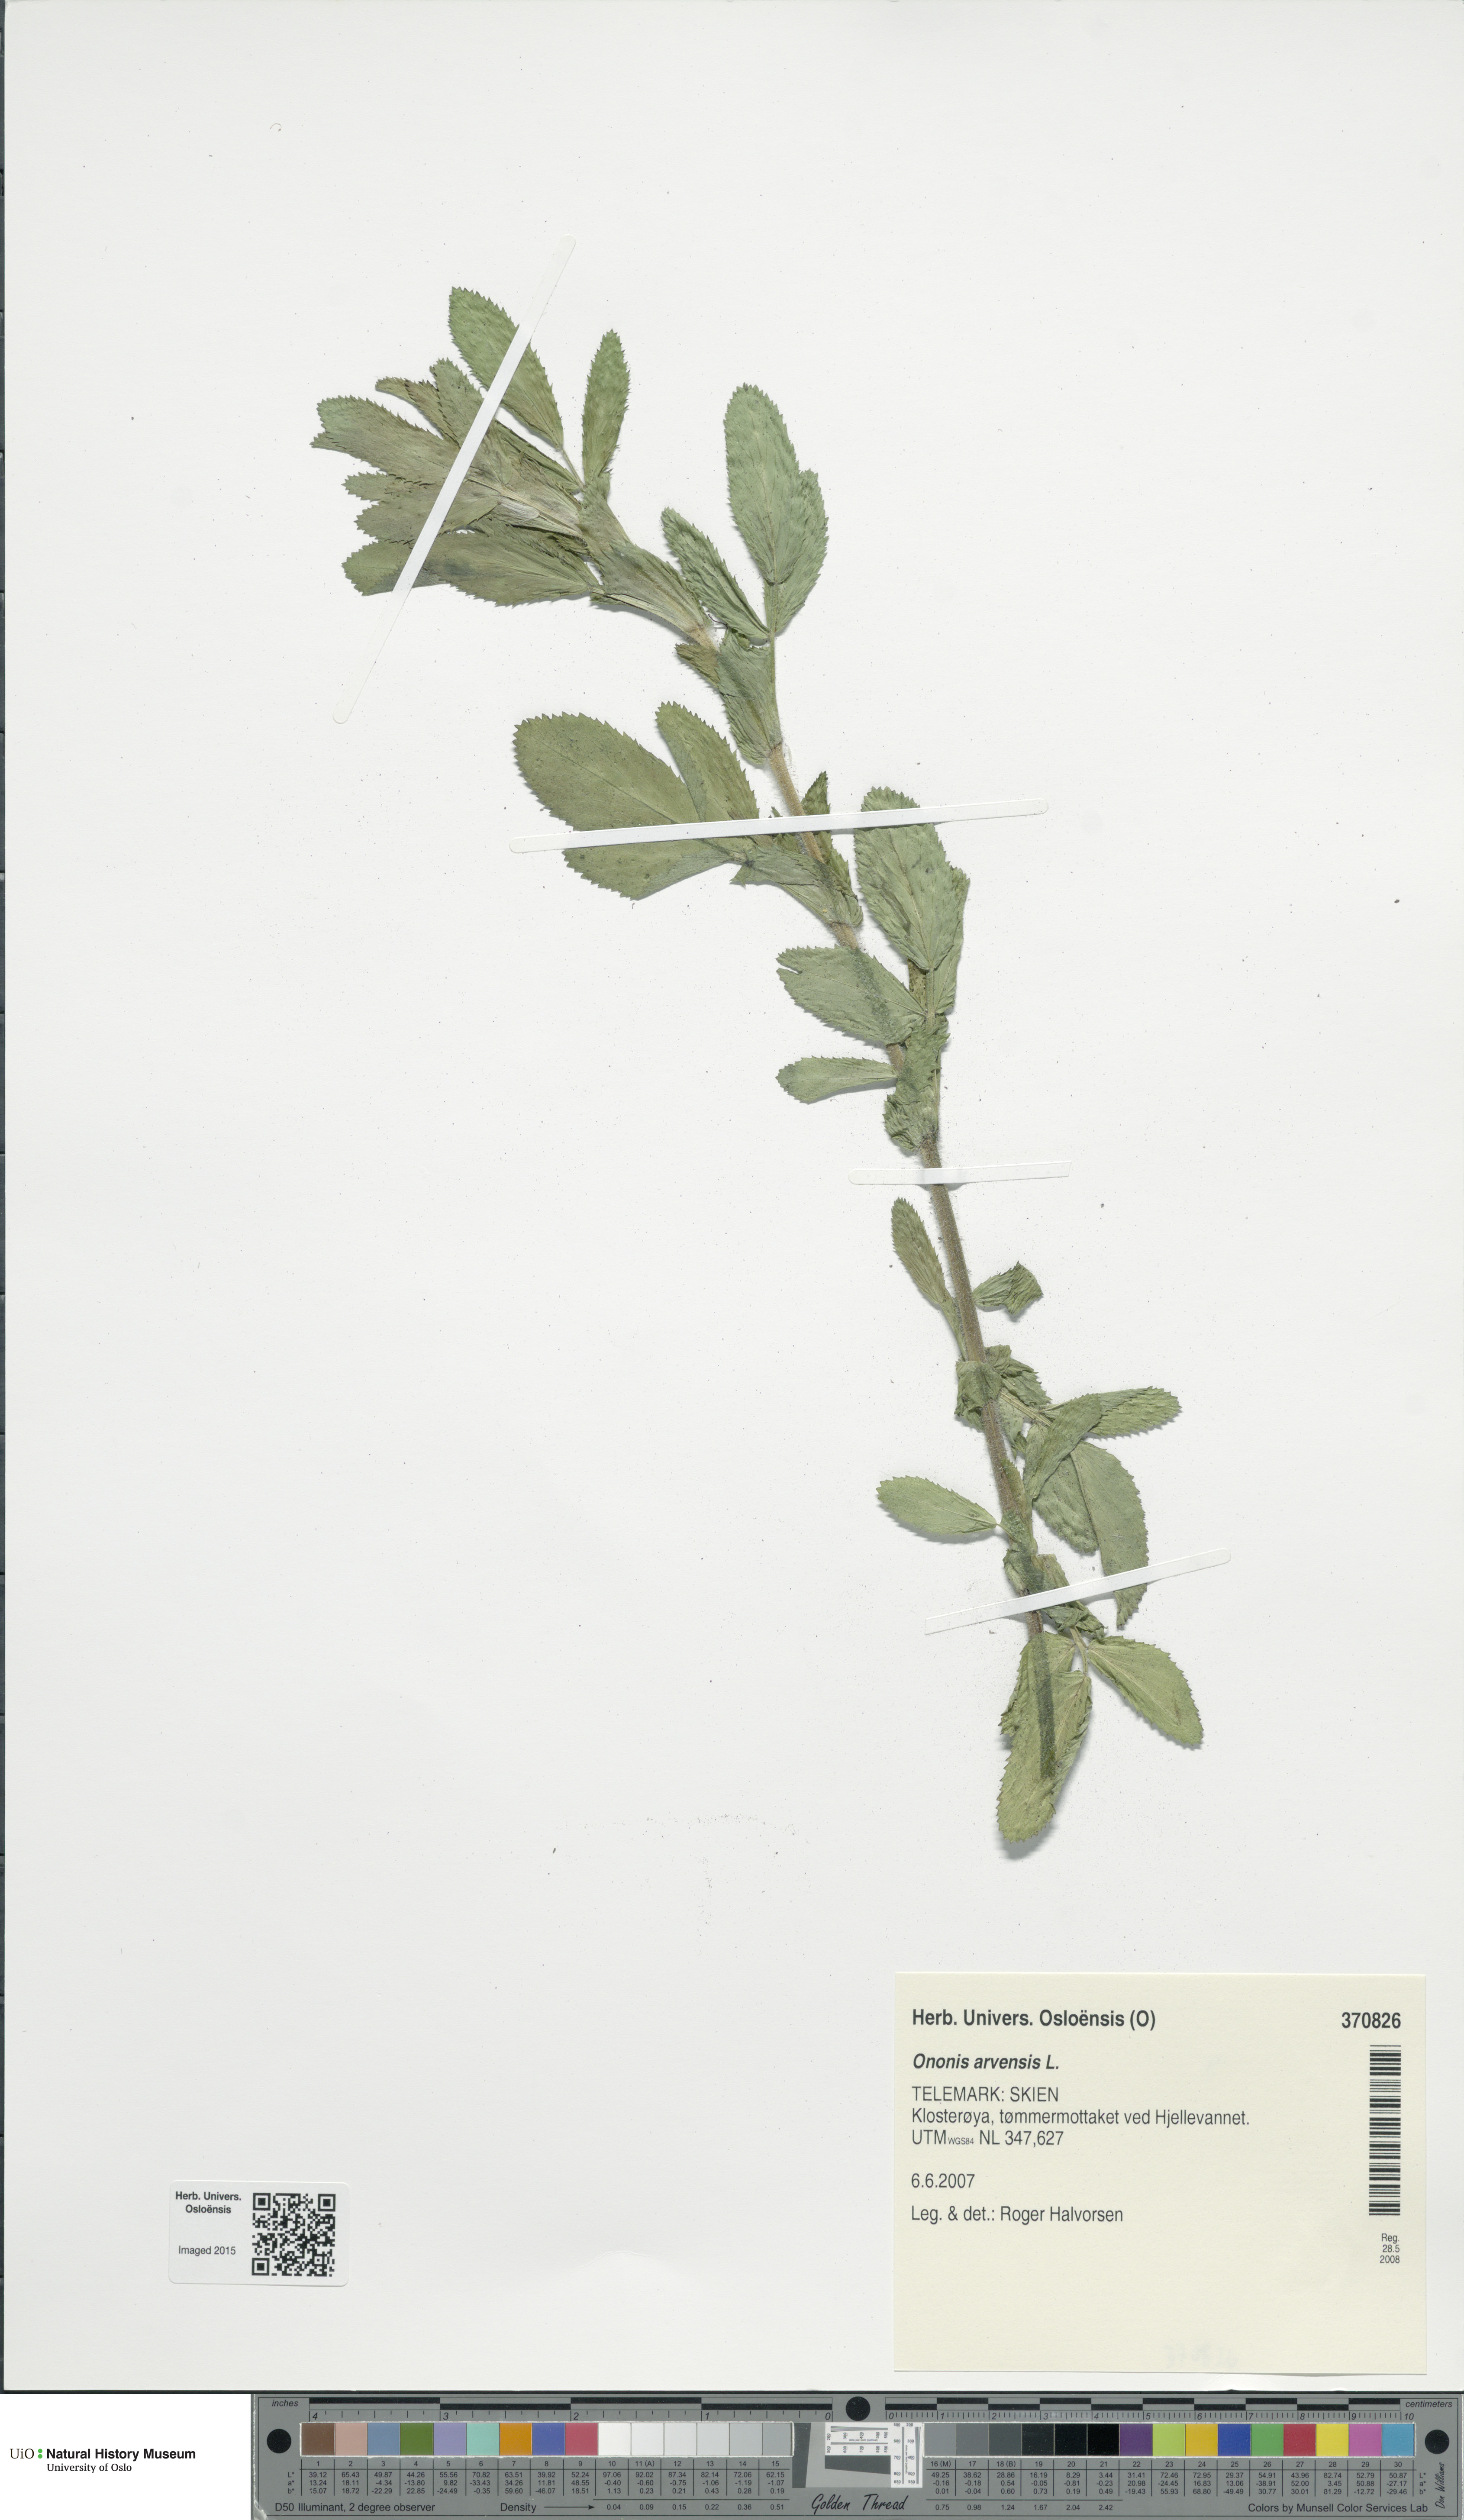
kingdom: Plantae
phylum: Tracheophyta
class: Magnoliopsida
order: Fabales
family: Fabaceae
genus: Ononis
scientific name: Ononis arvensis
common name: Field restharrow
